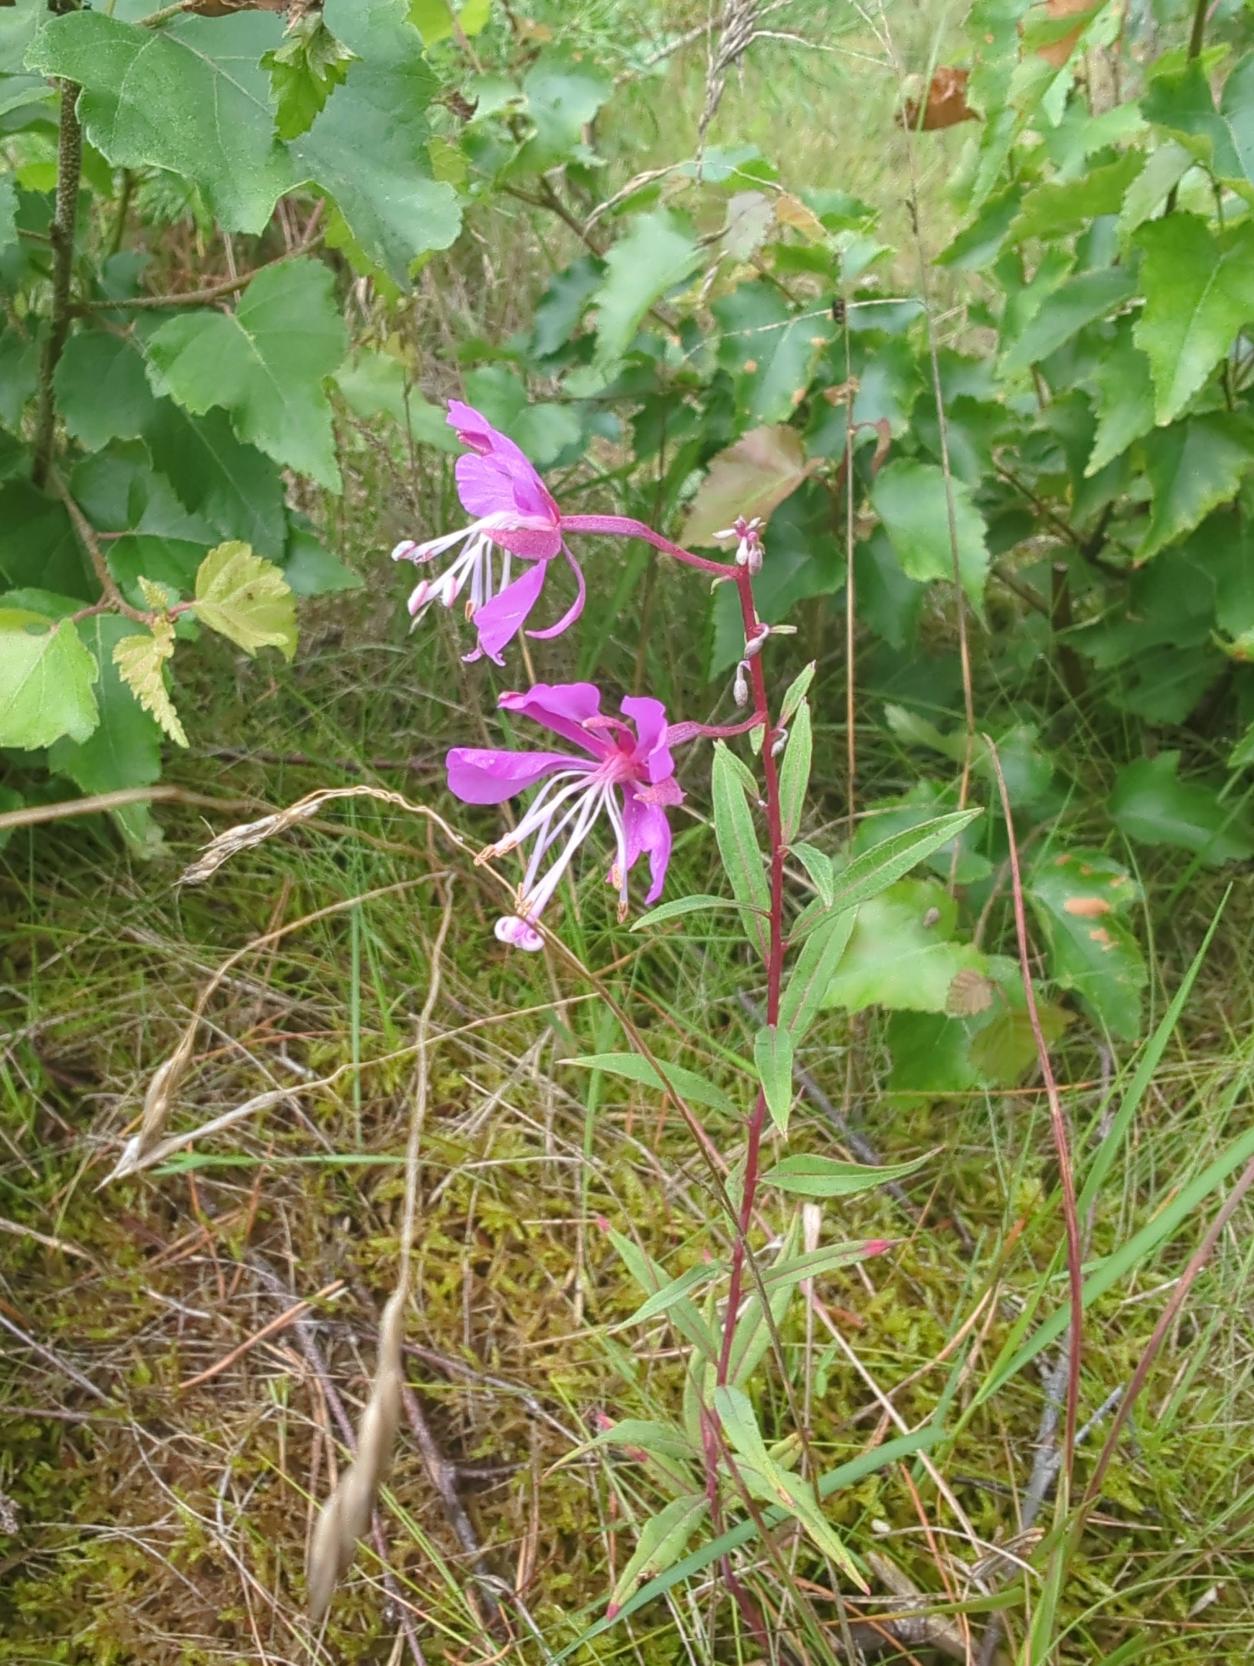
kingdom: Plantae
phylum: Tracheophyta
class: Magnoliopsida
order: Myrtales
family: Onagraceae
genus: Chamaenerion
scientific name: Chamaenerion angustifolium
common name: Gederams
